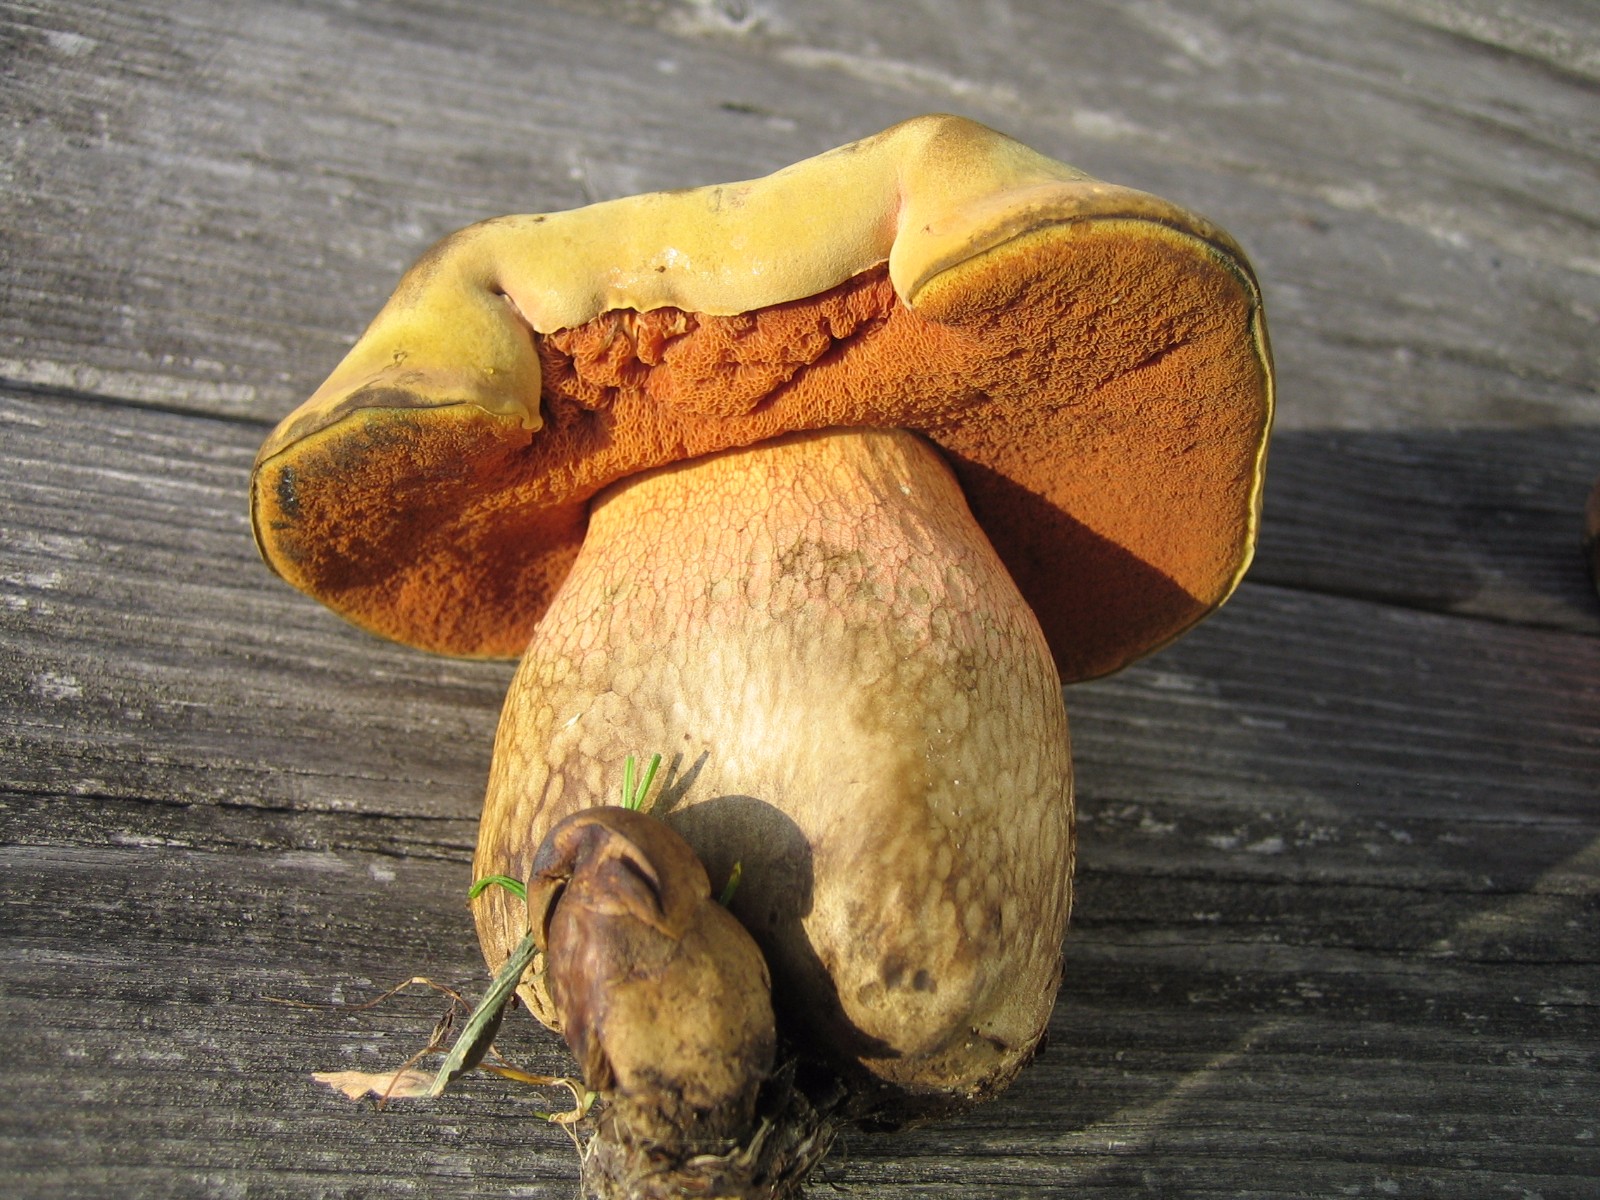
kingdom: Fungi
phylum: Basidiomycota
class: Agaricomycetes
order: Boletales
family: Boletaceae
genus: Suillellus
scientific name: Suillellus luridus
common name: netstokket indigorørhat
